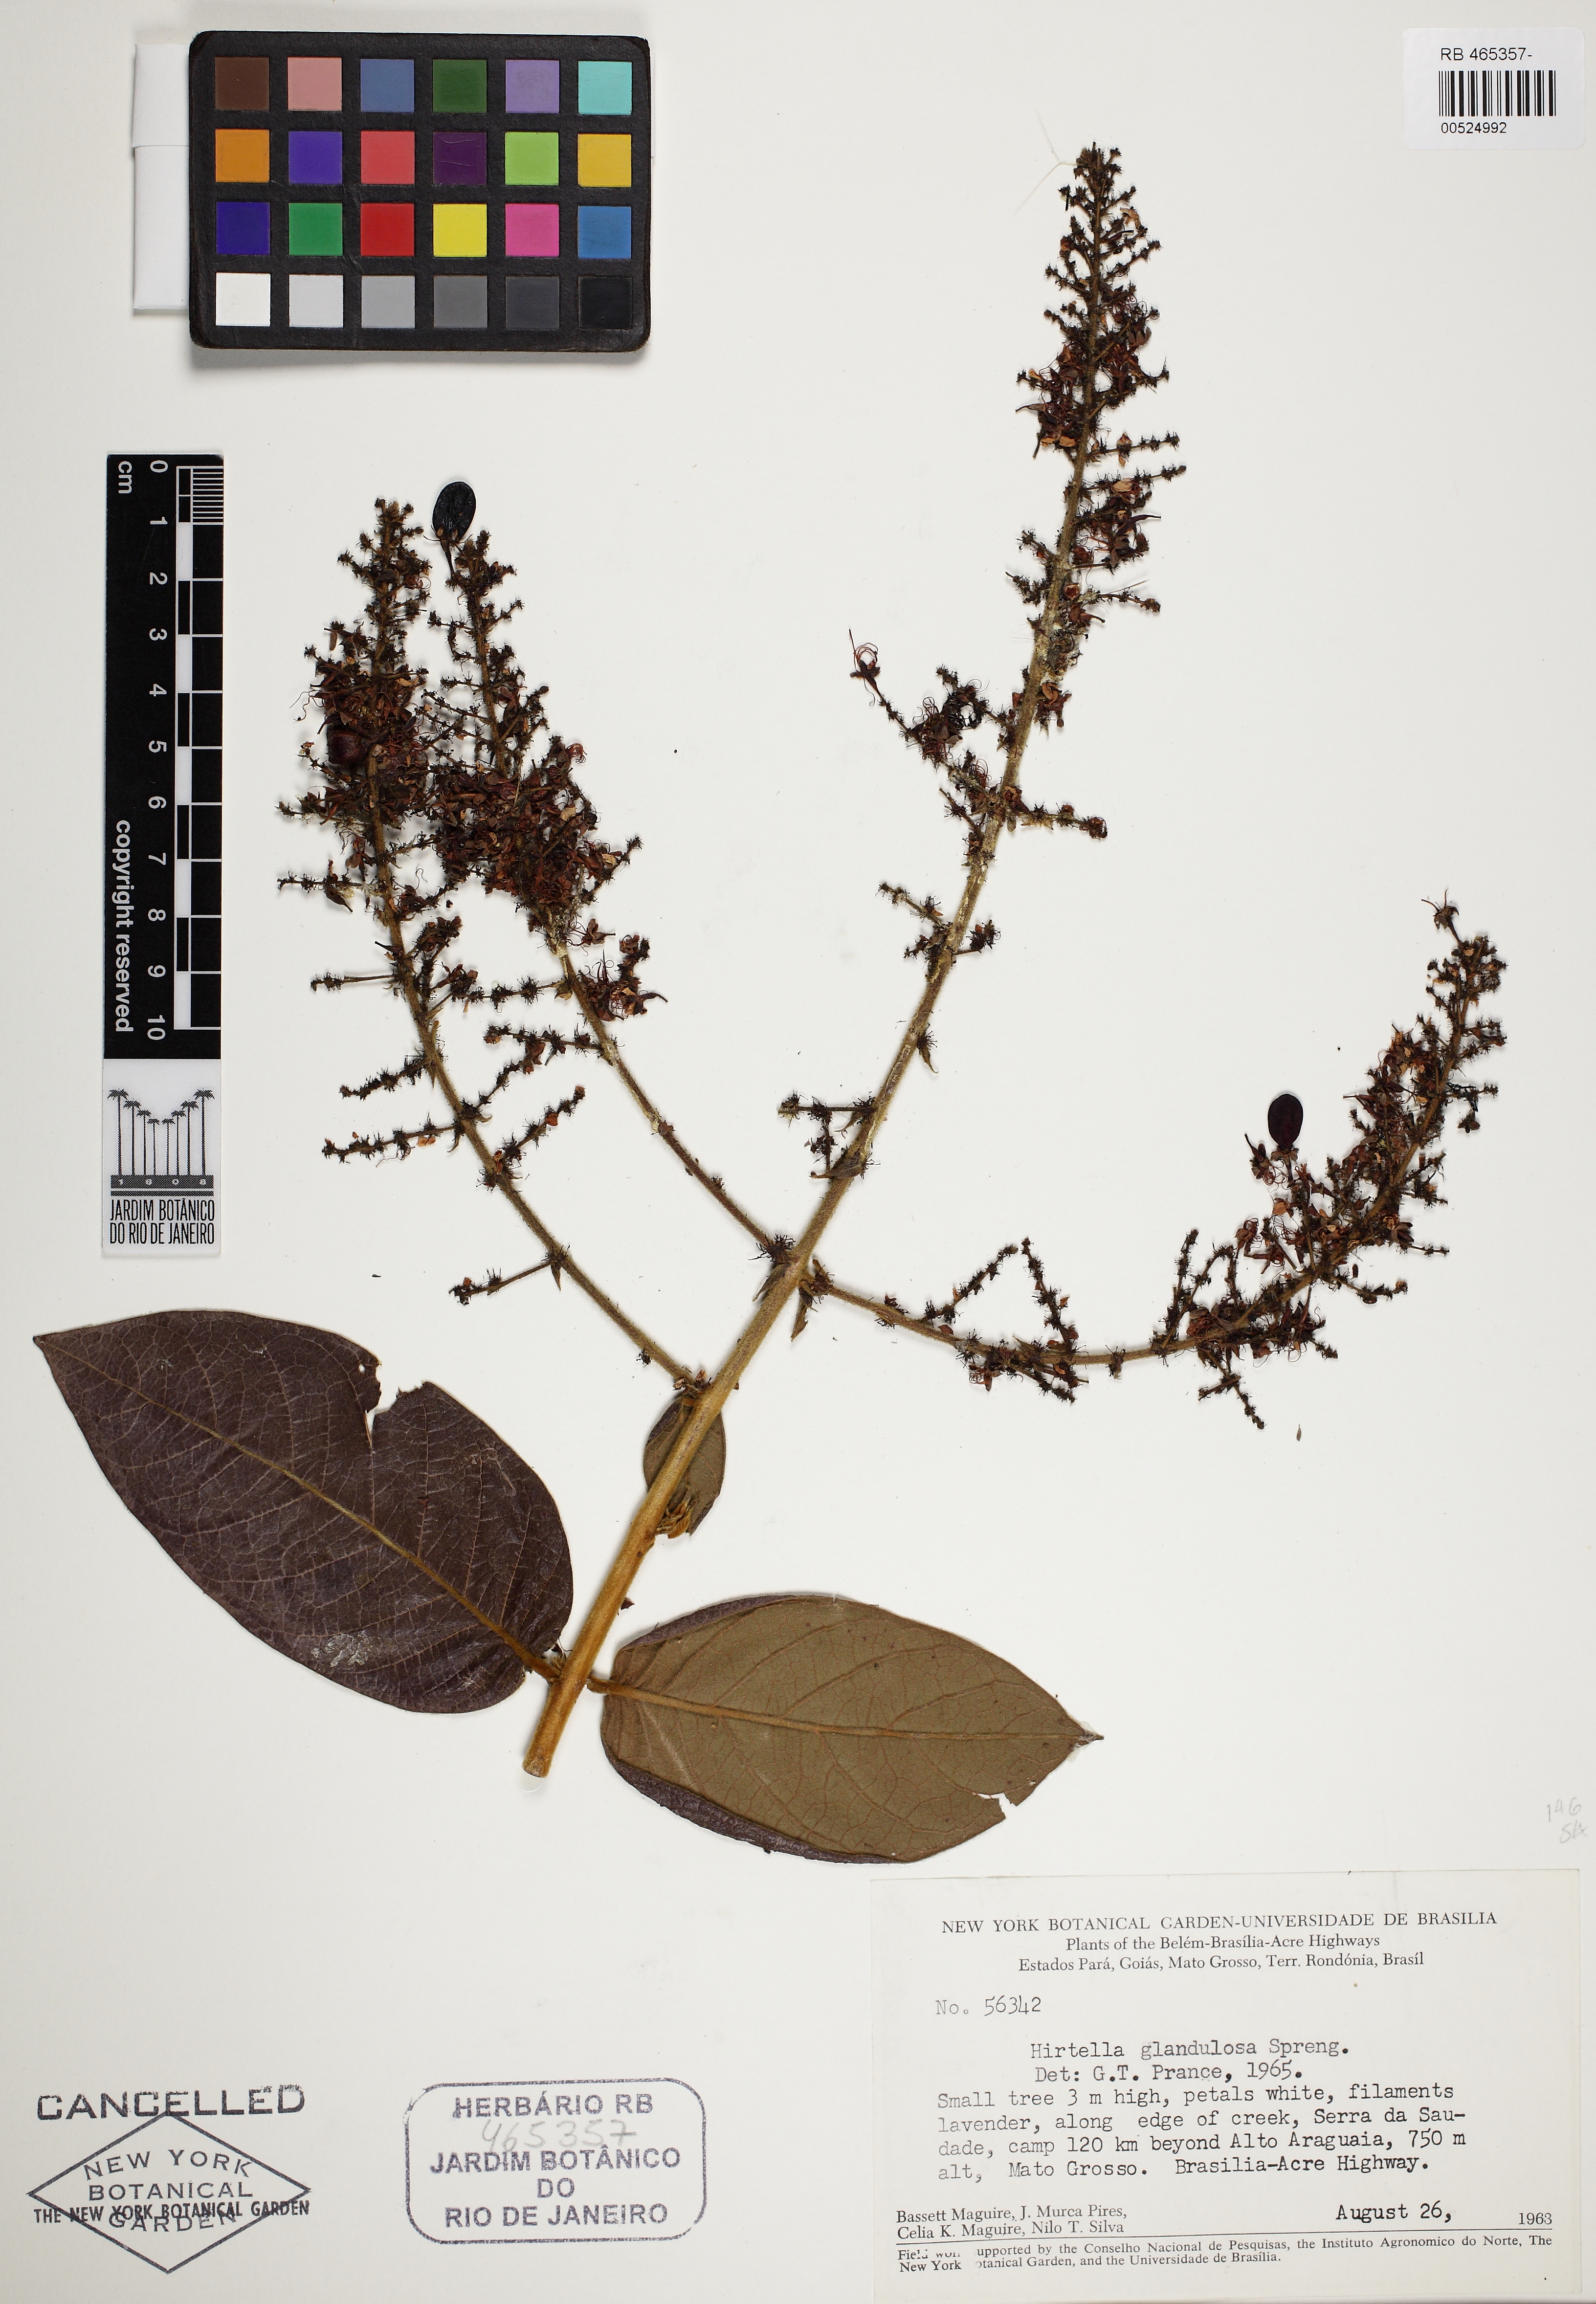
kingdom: Plantae
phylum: Tracheophyta
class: Magnoliopsida
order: Malpighiales
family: Chrysobalanaceae
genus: Hirtella
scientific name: Hirtella glandulosa
